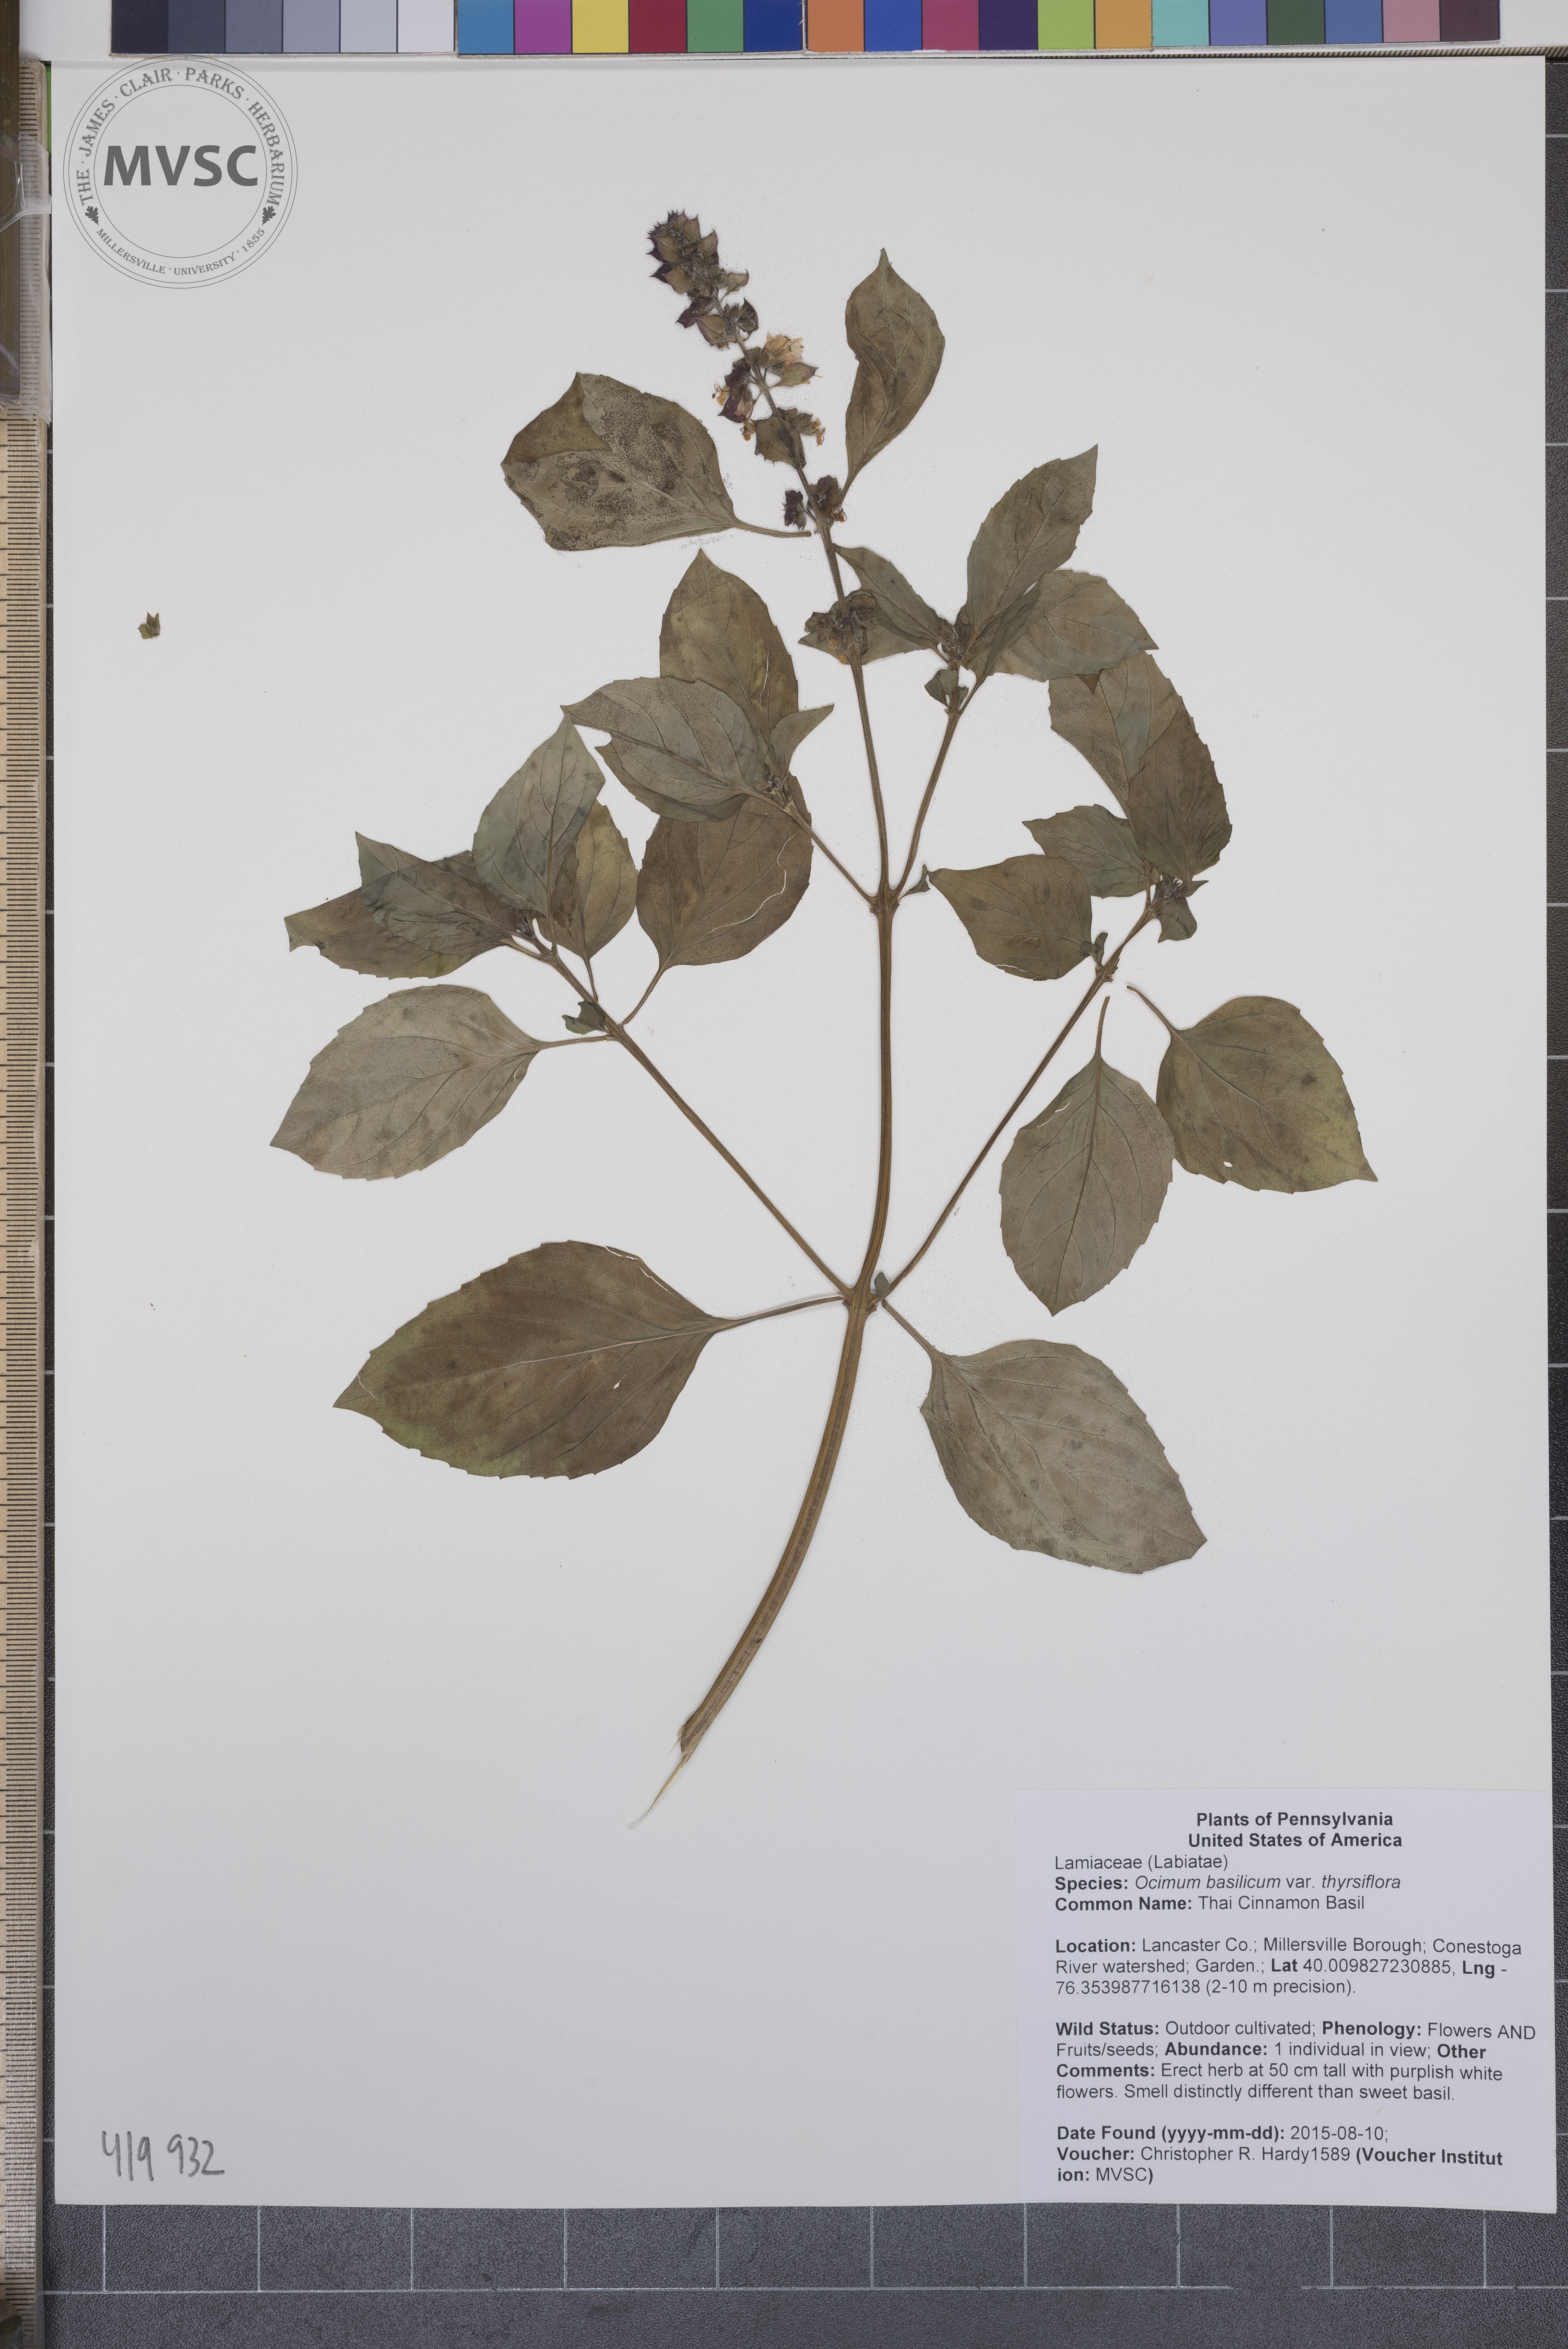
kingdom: Plantae
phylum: Tracheophyta
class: Magnoliopsida
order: Lamiales
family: Lamiaceae
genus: Ocimum
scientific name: Ocimum basilicum
